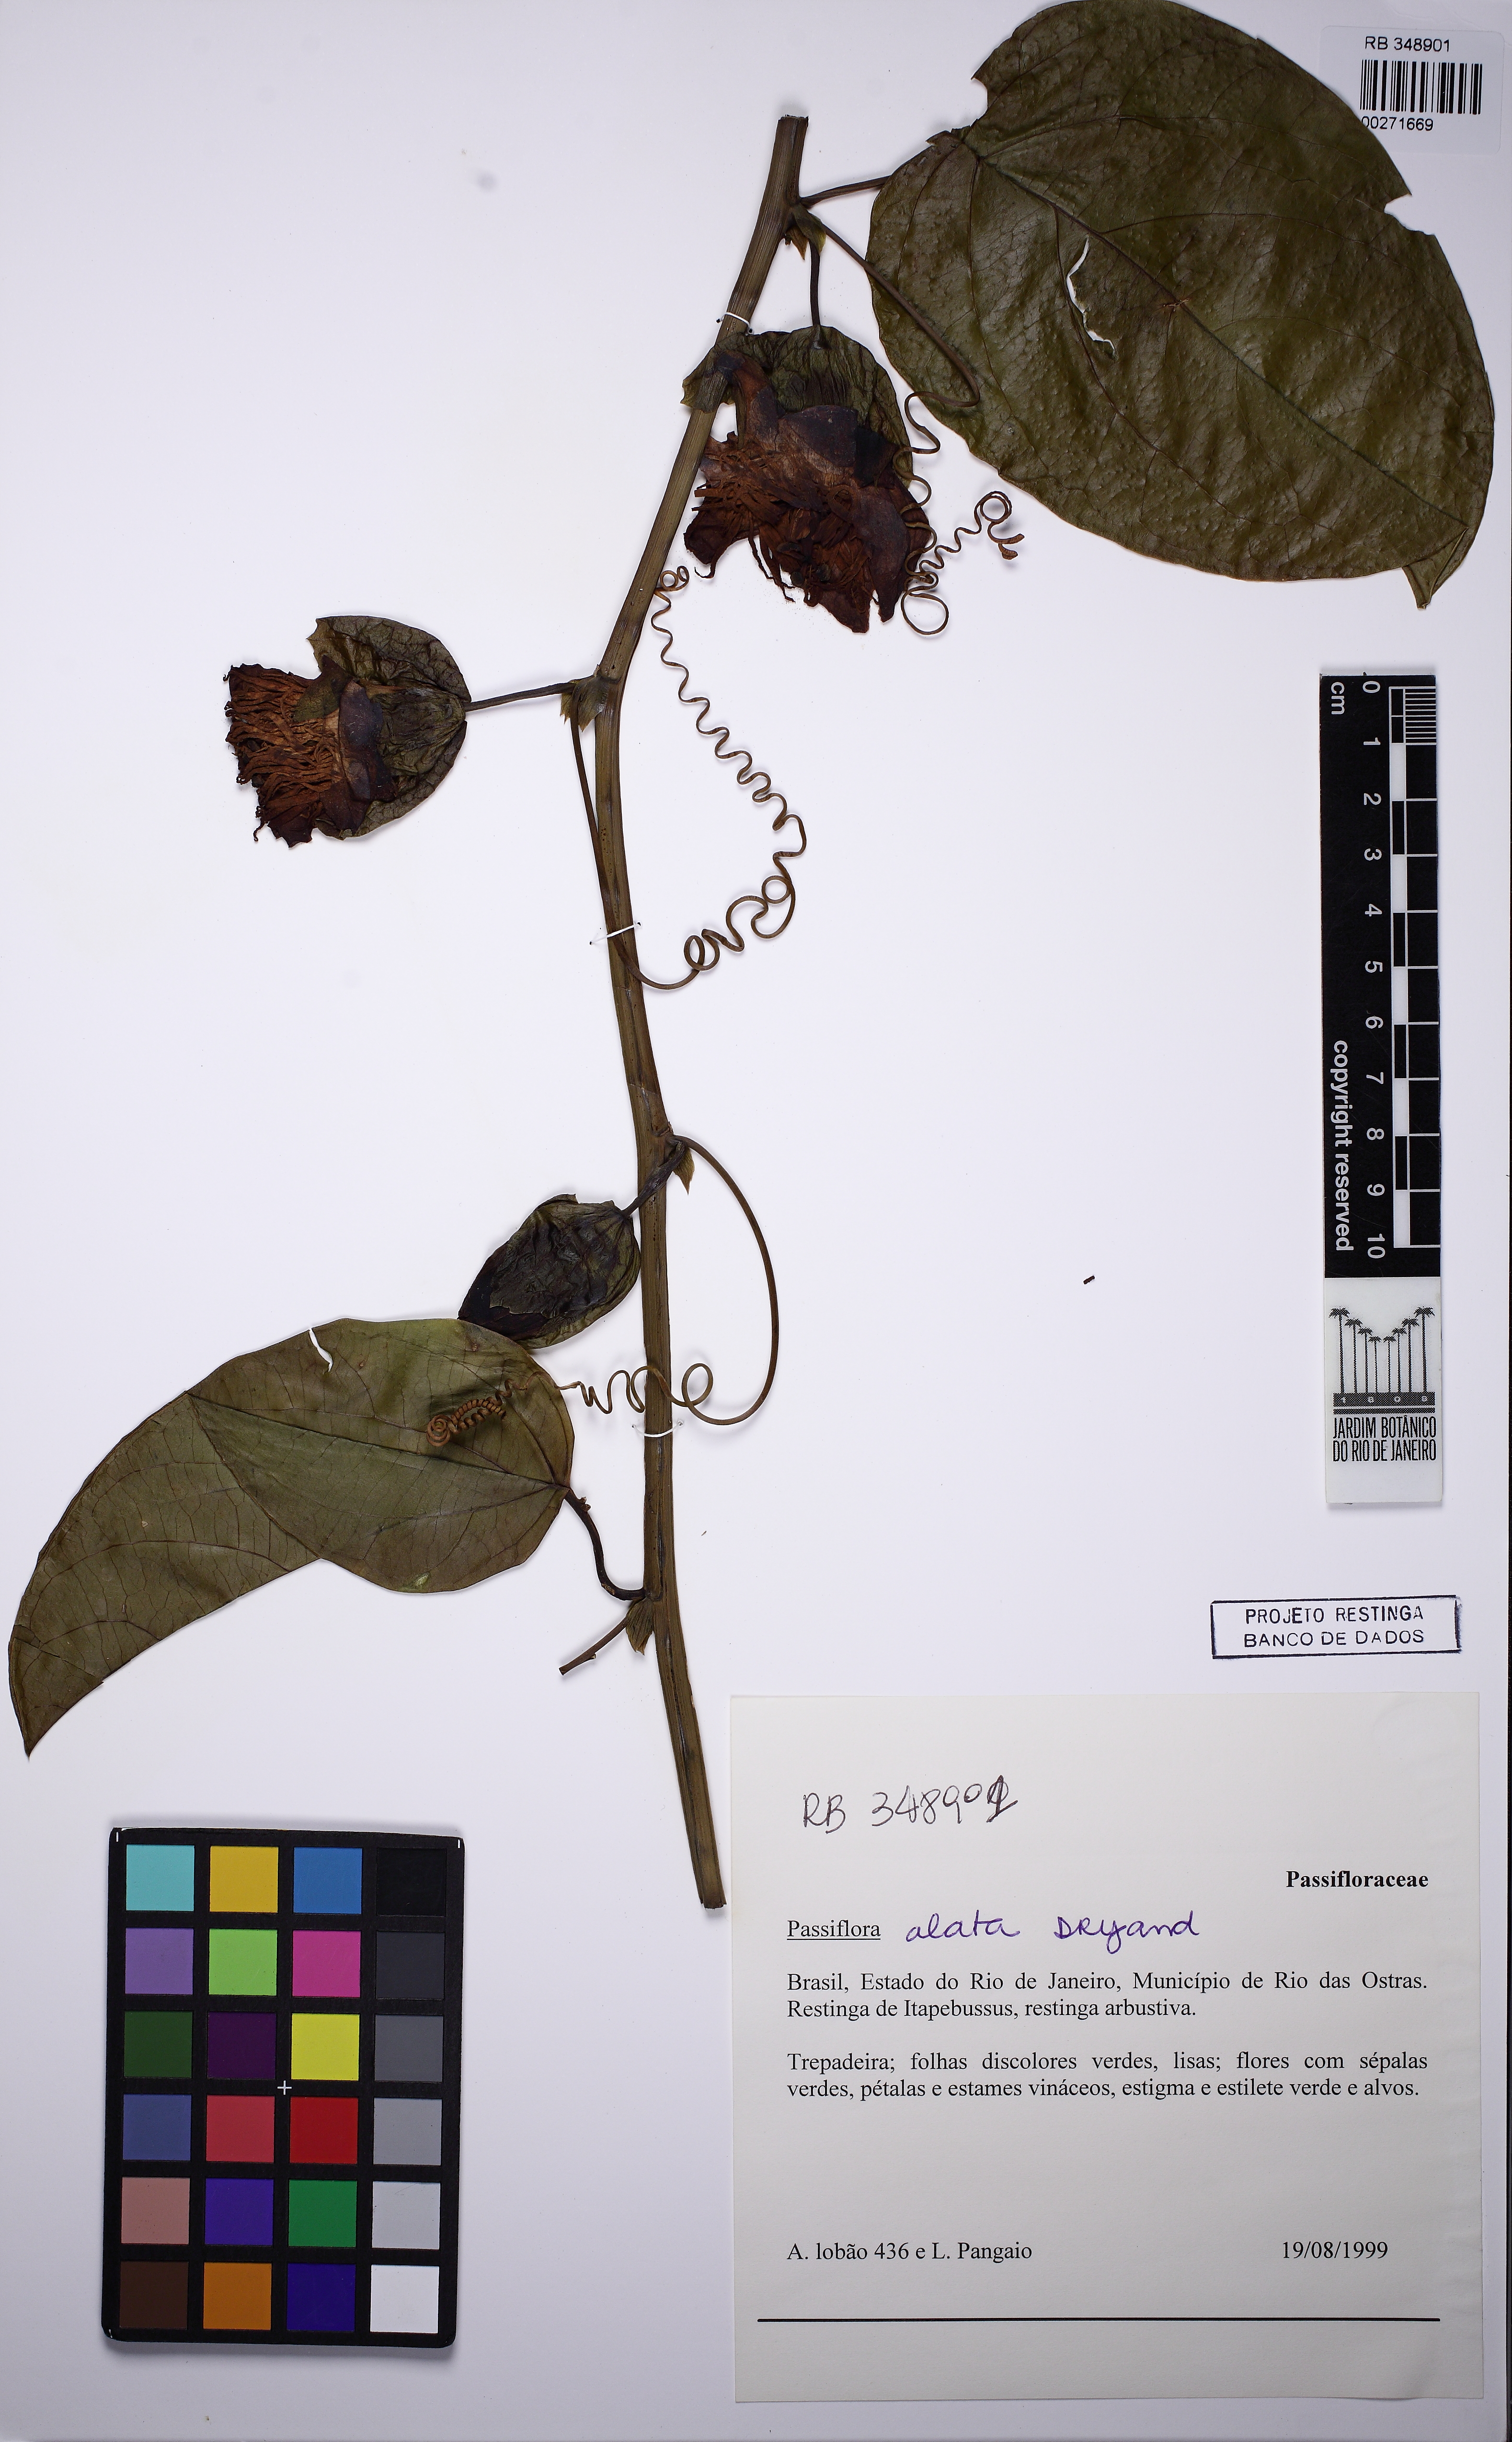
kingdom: Plantae
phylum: Tracheophyta
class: Magnoliopsida
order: Malpighiales
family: Passifloraceae
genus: Passiflora
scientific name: Passiflora alata
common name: Wing-stemmed passion flower
